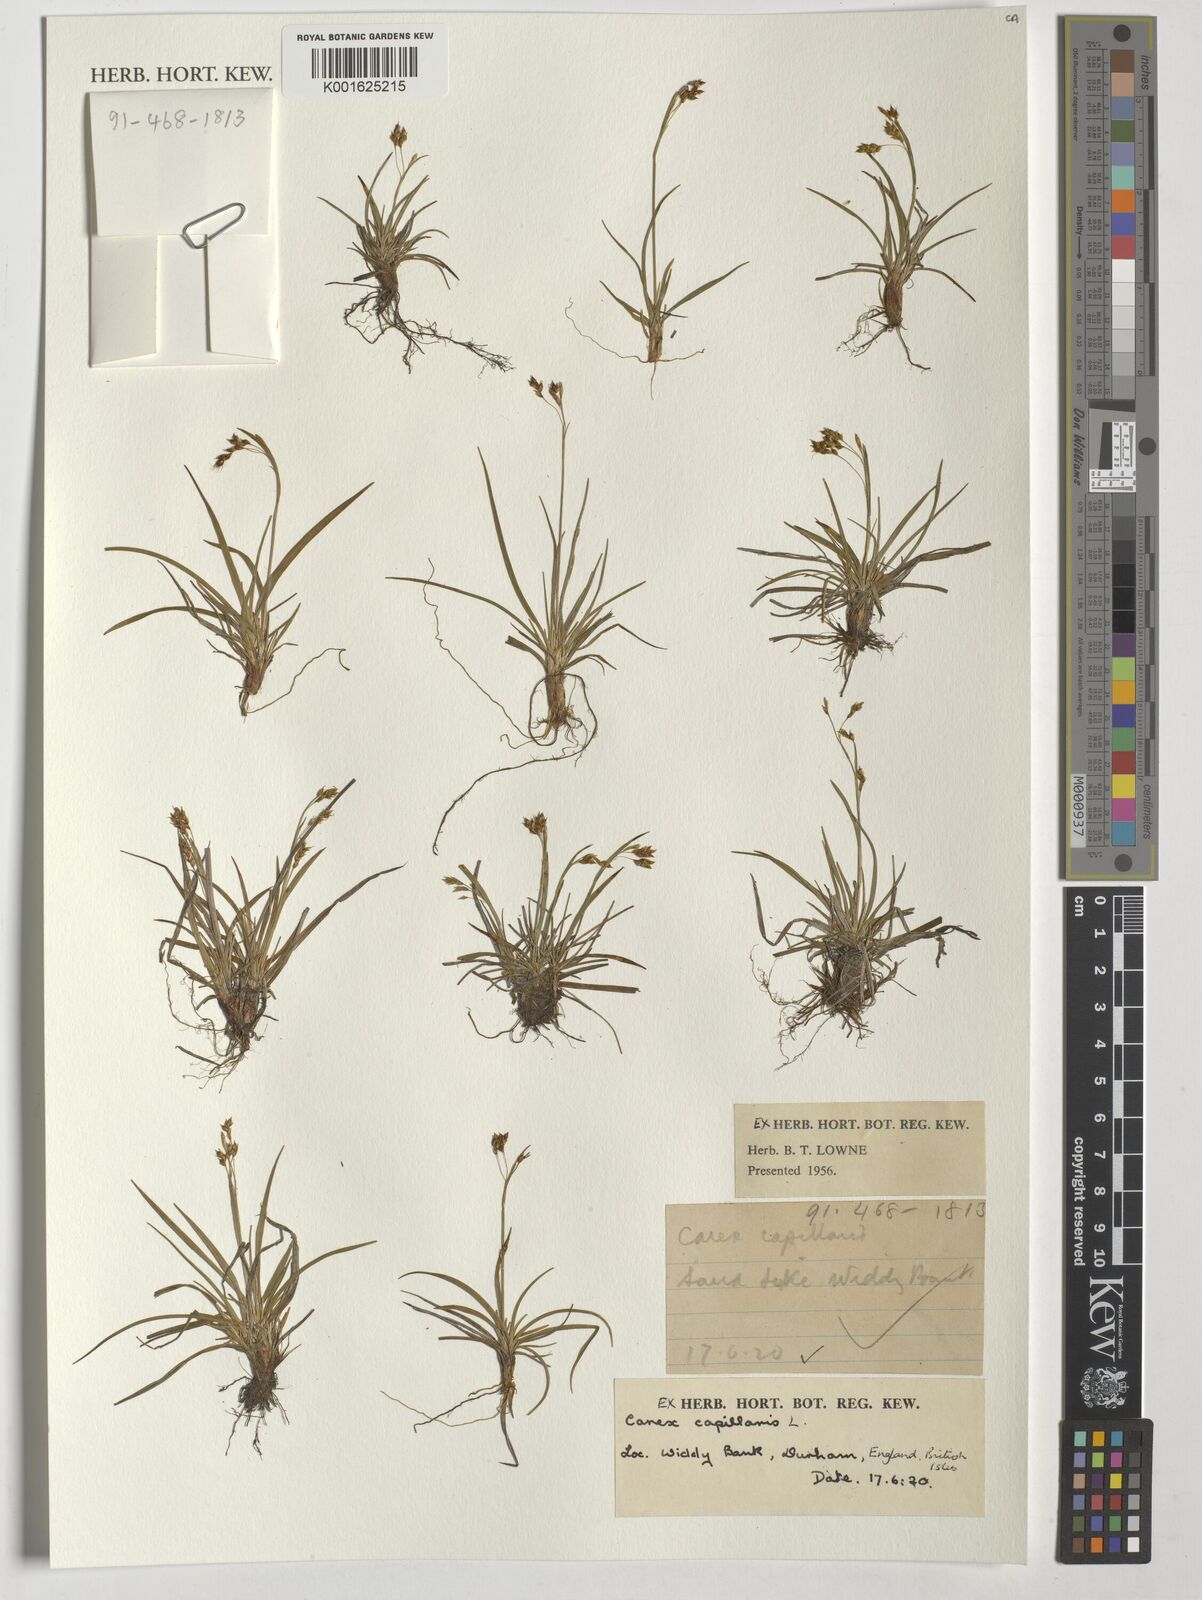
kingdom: Plantae
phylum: Tracheophyta
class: Liliopsida
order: Poales
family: Cyperaceae
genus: Carex
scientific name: Carex capillaris
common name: Hair sedge
